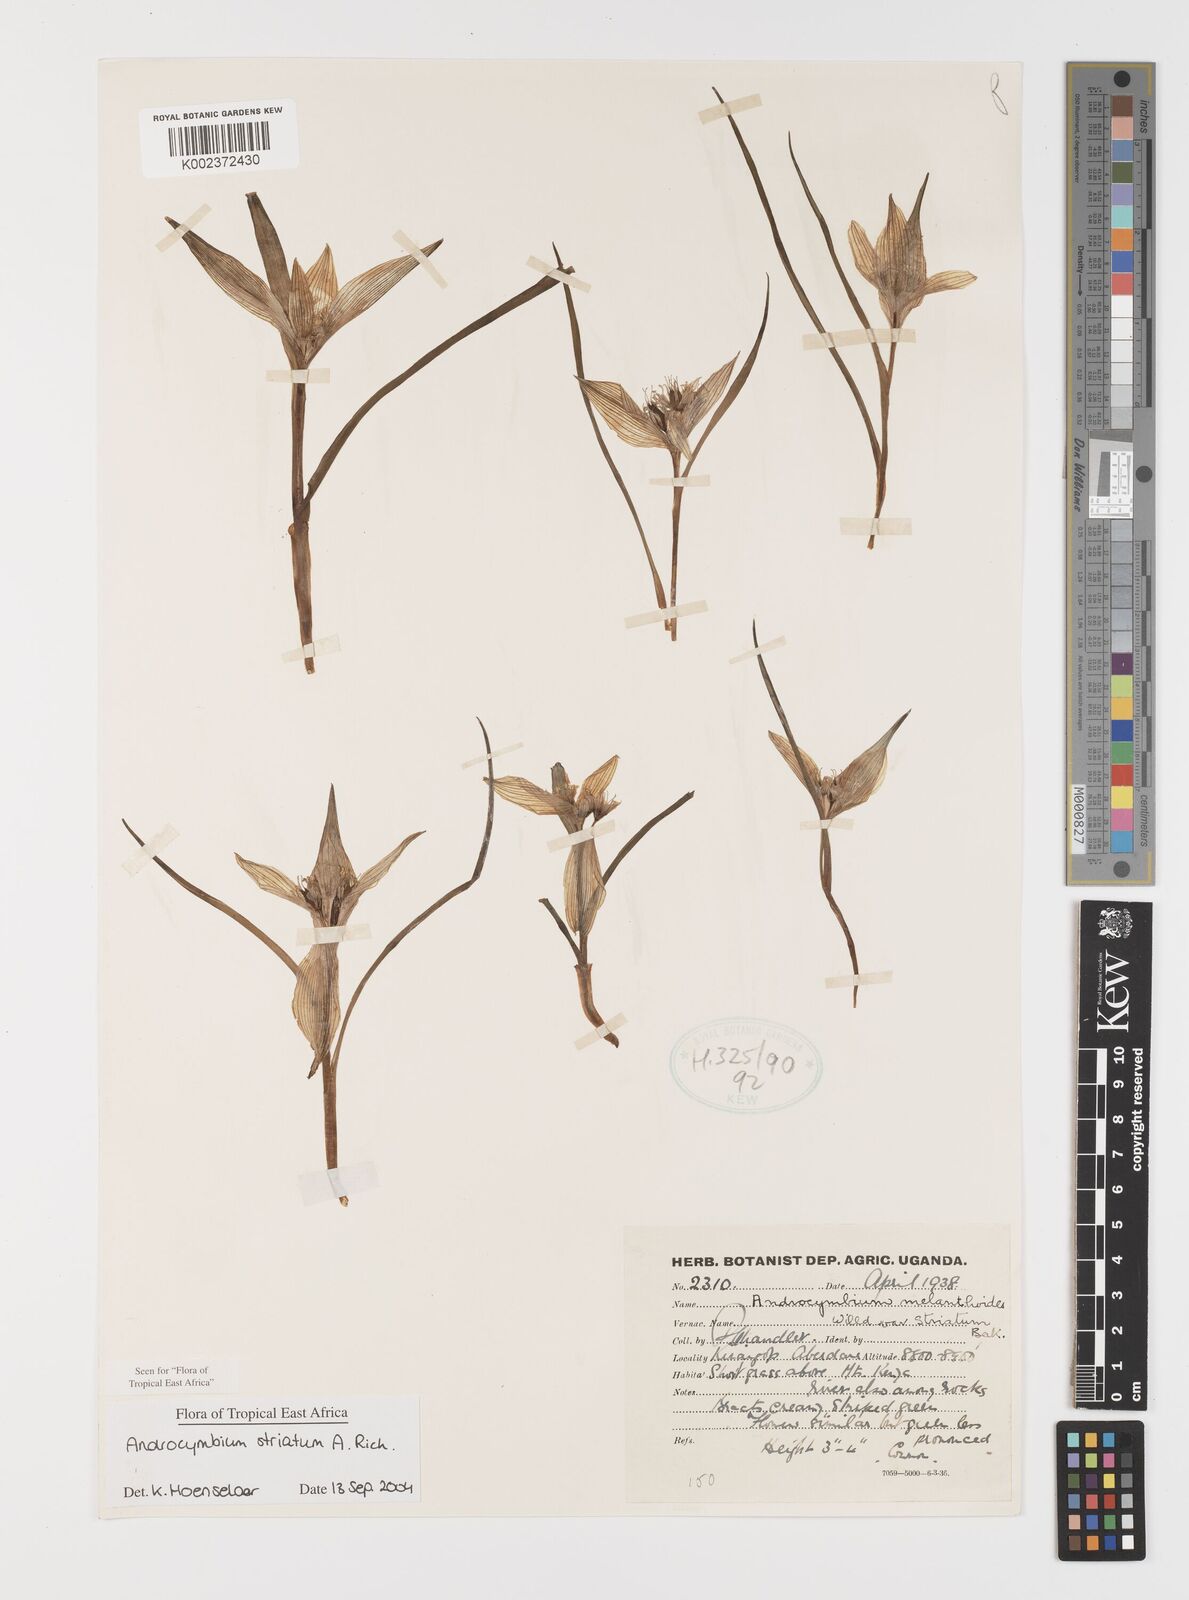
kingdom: Plantae
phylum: Tracheophyta
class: Liliopsida
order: Liliales
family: Colchicaceae
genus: Colchicum
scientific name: Colchicum striatum
